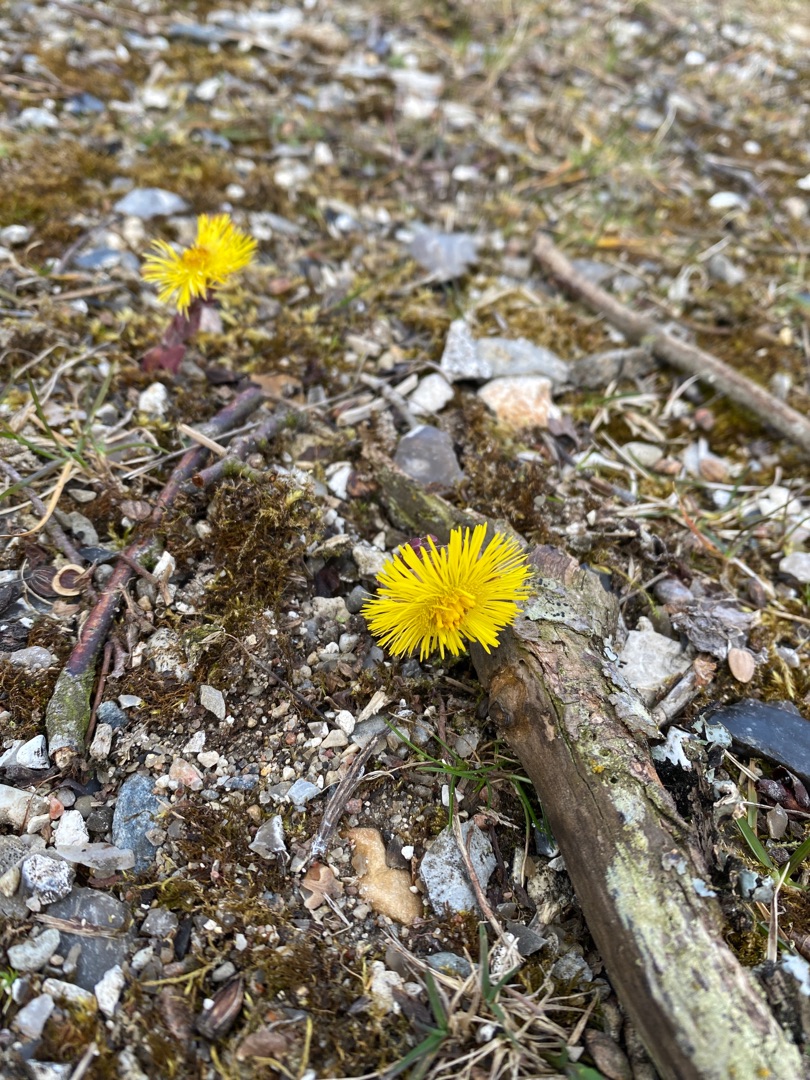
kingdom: Plantae
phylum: Tracheophyta
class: Magnoliopsida
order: Asterales
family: Asteraceae
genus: Tussilago
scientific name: Tussilago farfara
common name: Følfod
